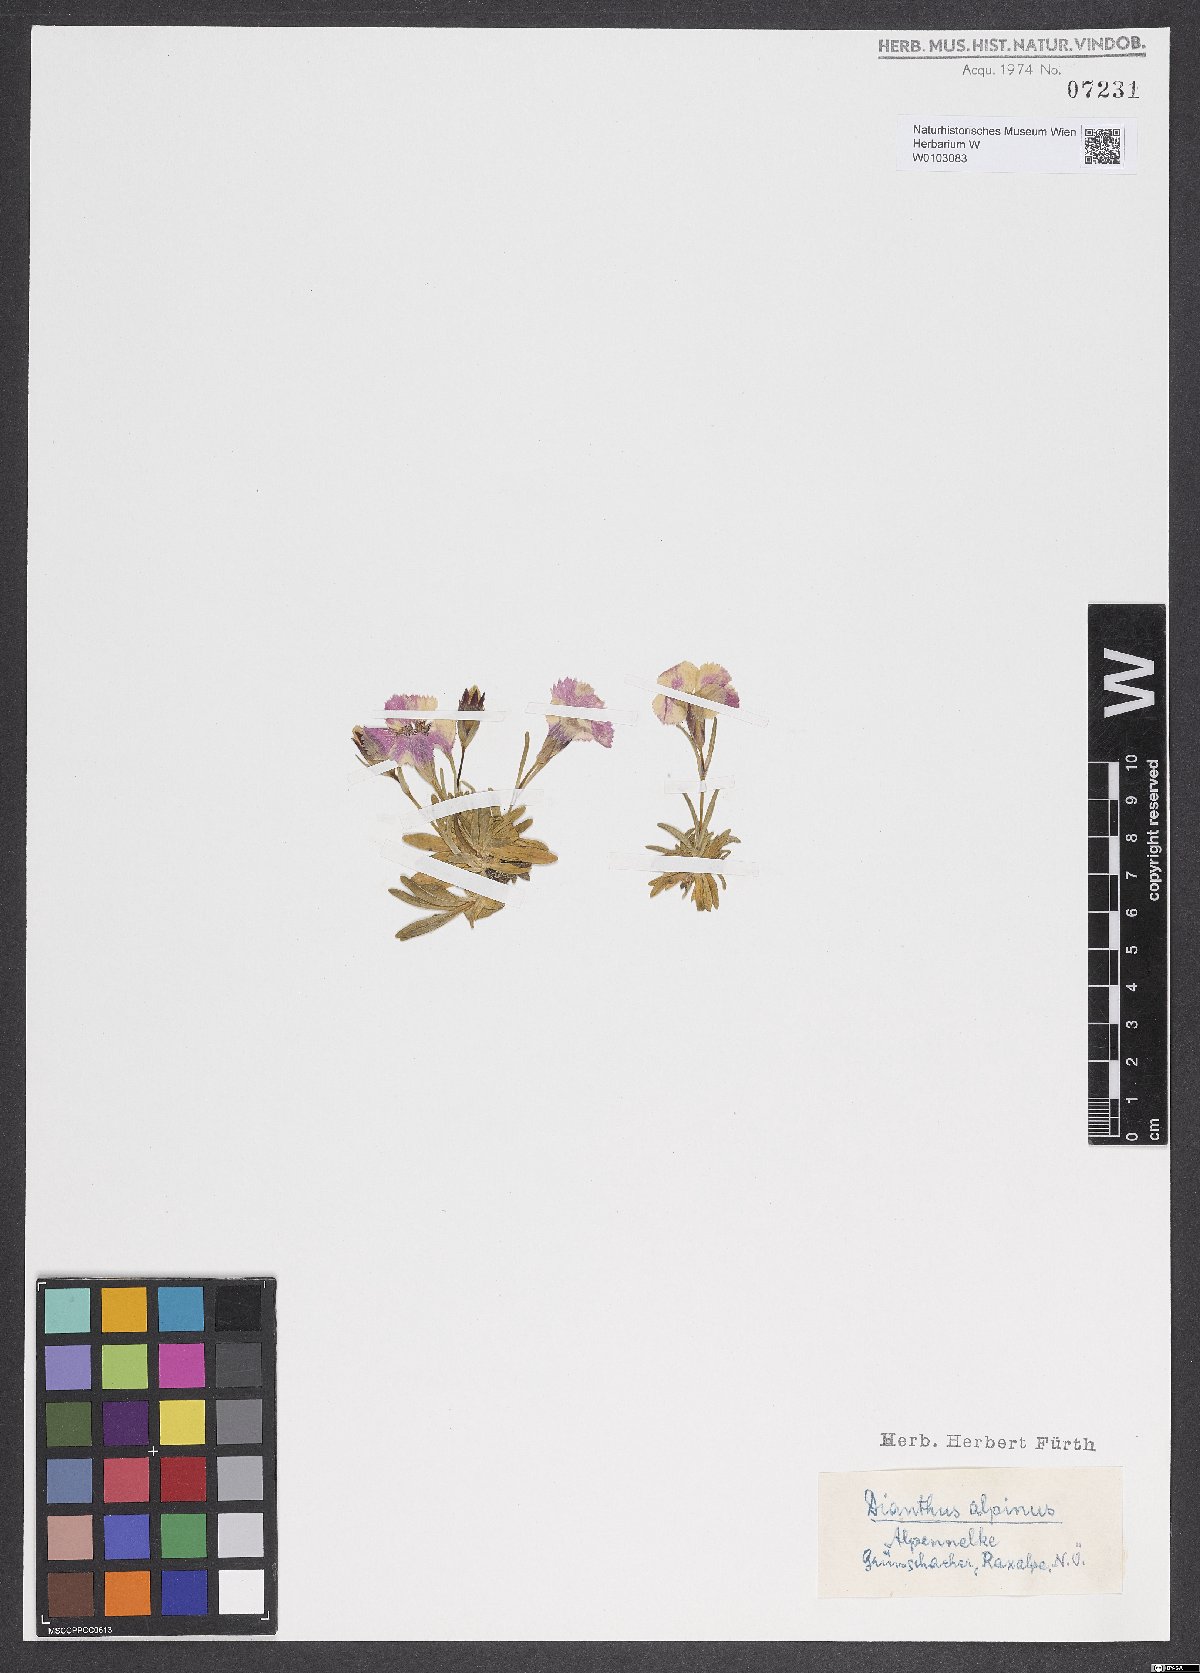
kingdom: Plantae
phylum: Tracheophyta
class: Magnoliopsida
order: Caryophyllales
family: Caryophyllaceae
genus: Dianthus
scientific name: Dianthus alpinus
